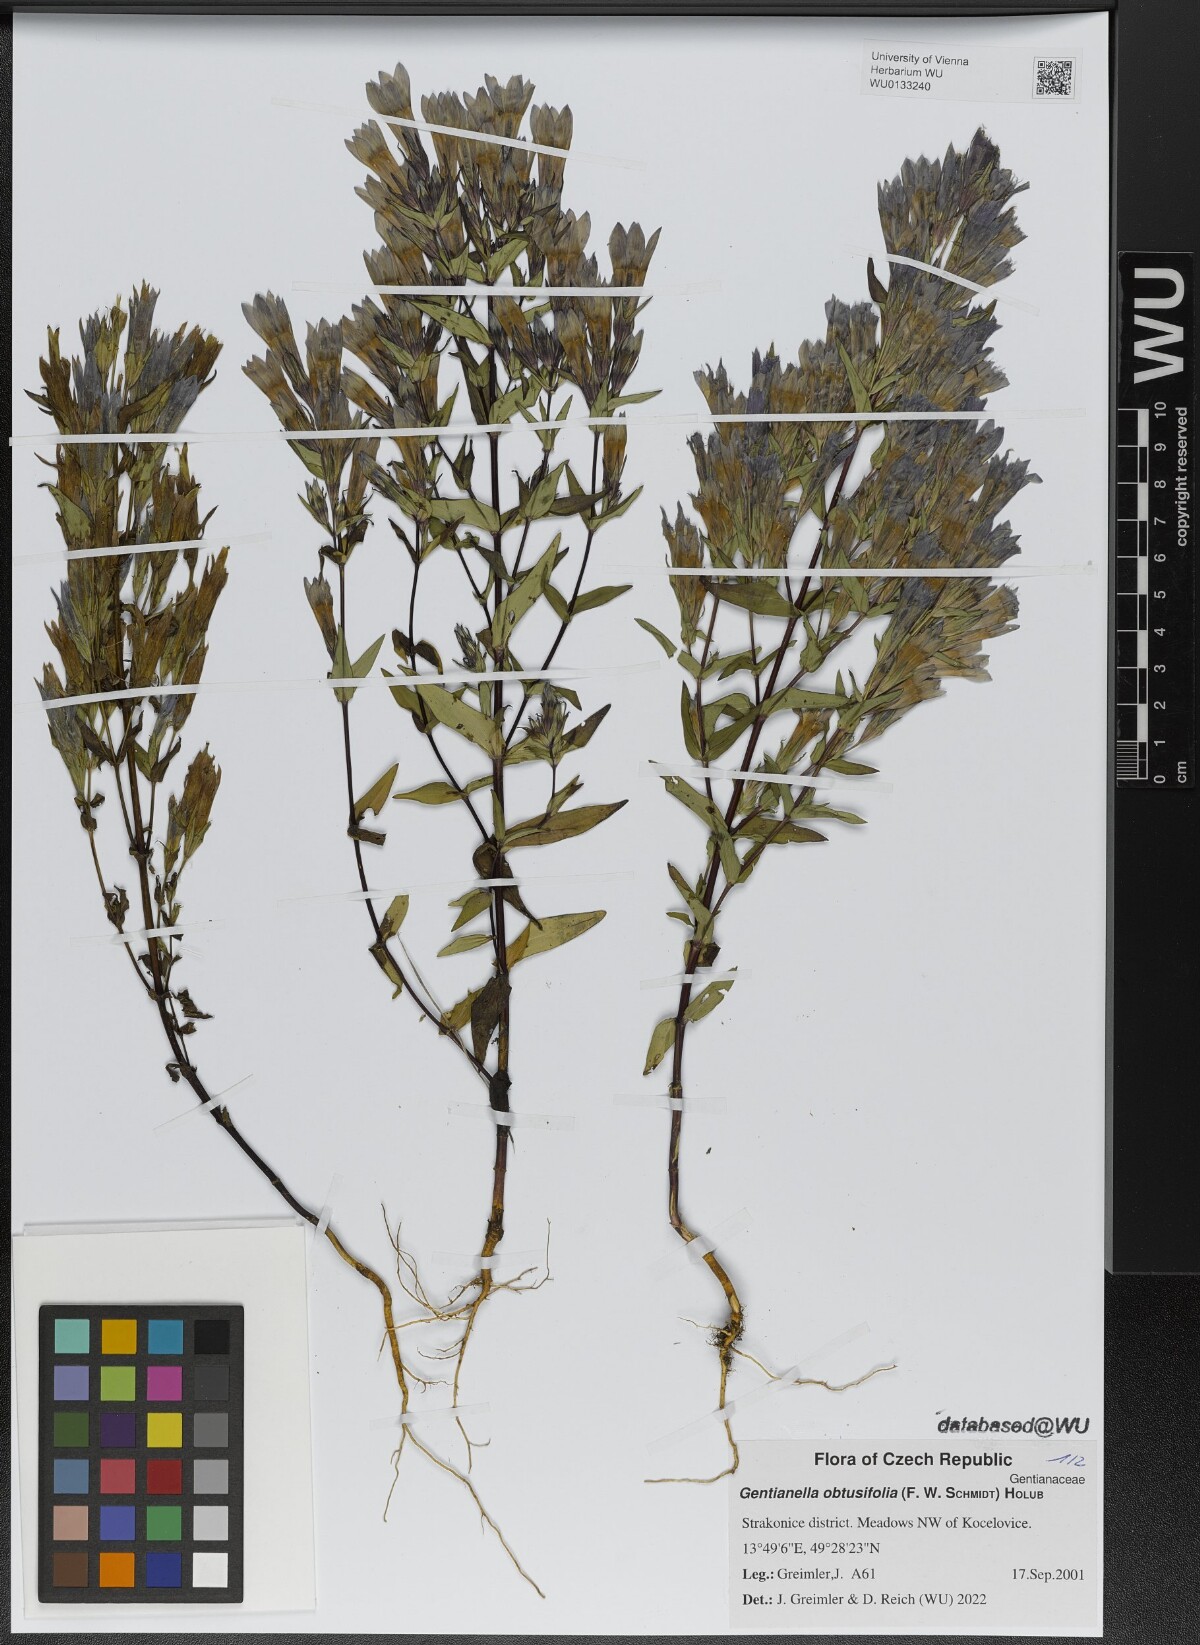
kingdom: Plantae
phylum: Tracheophyta
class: Magnoliopsida
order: Gentianales
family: Gentianaceae
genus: Gentianella
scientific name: Gentianella obtusifolia
